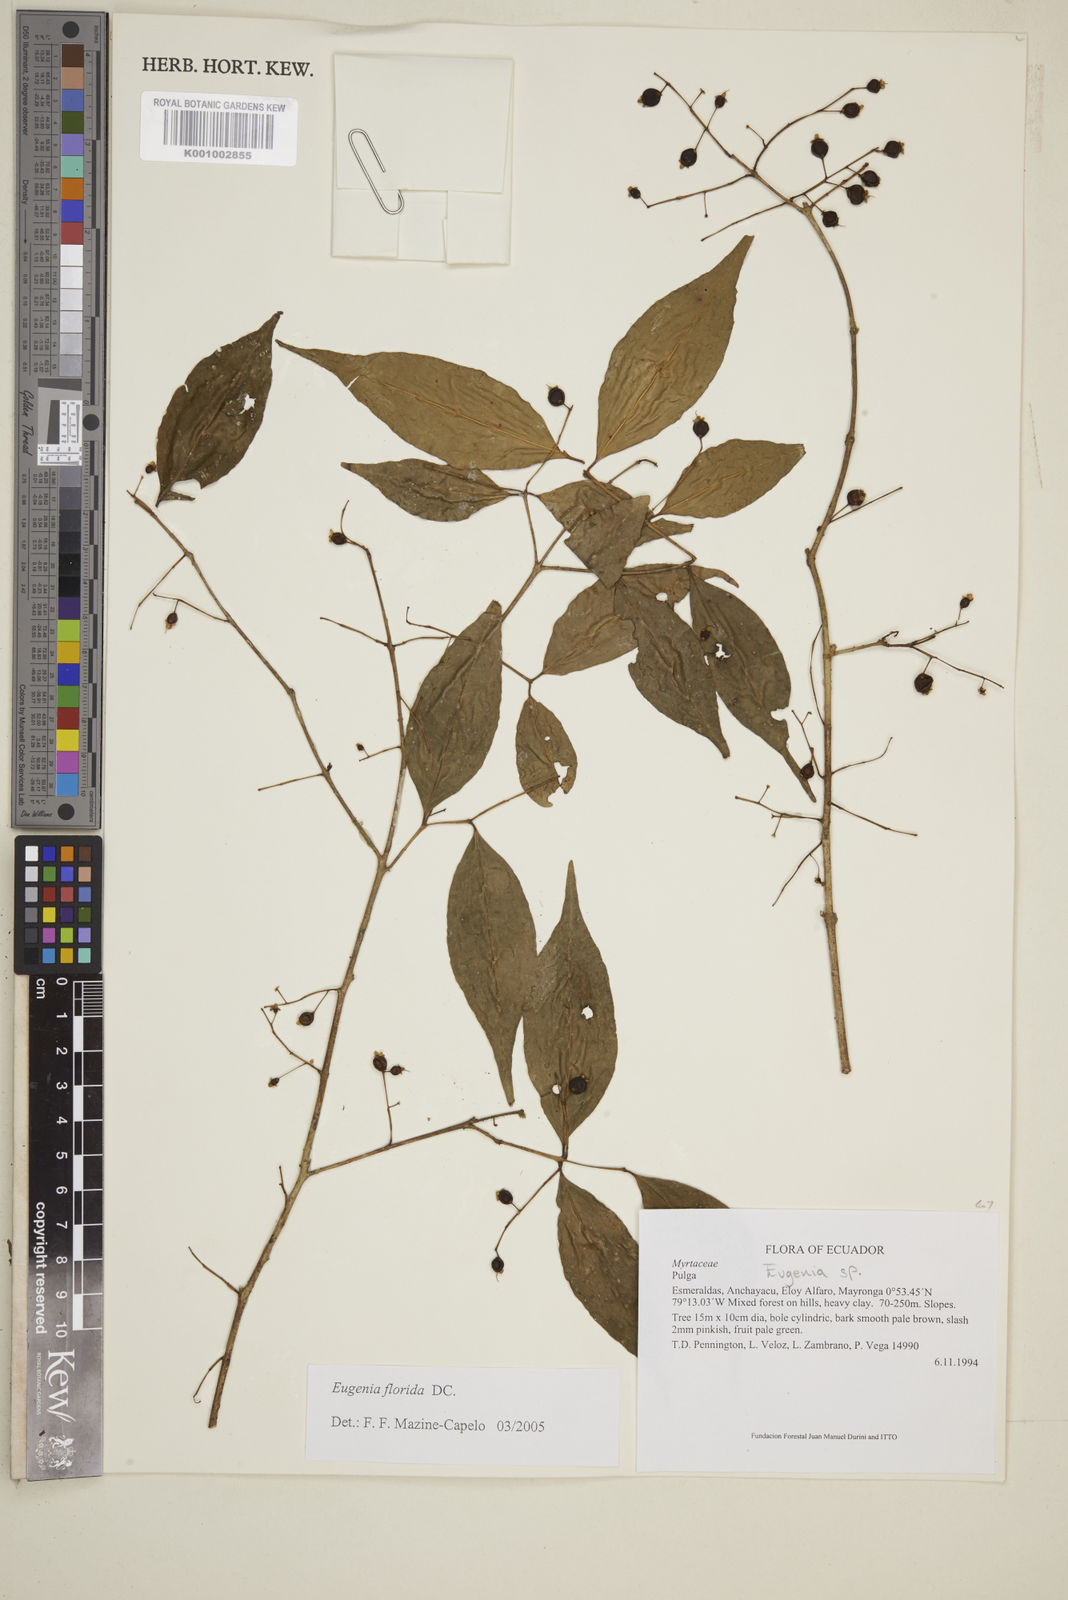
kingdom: Plantae
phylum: Tracheophyta
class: Magnoliopsida
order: Myrtales
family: Myrtaceae
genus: Eugenia
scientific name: Eugenia florida
